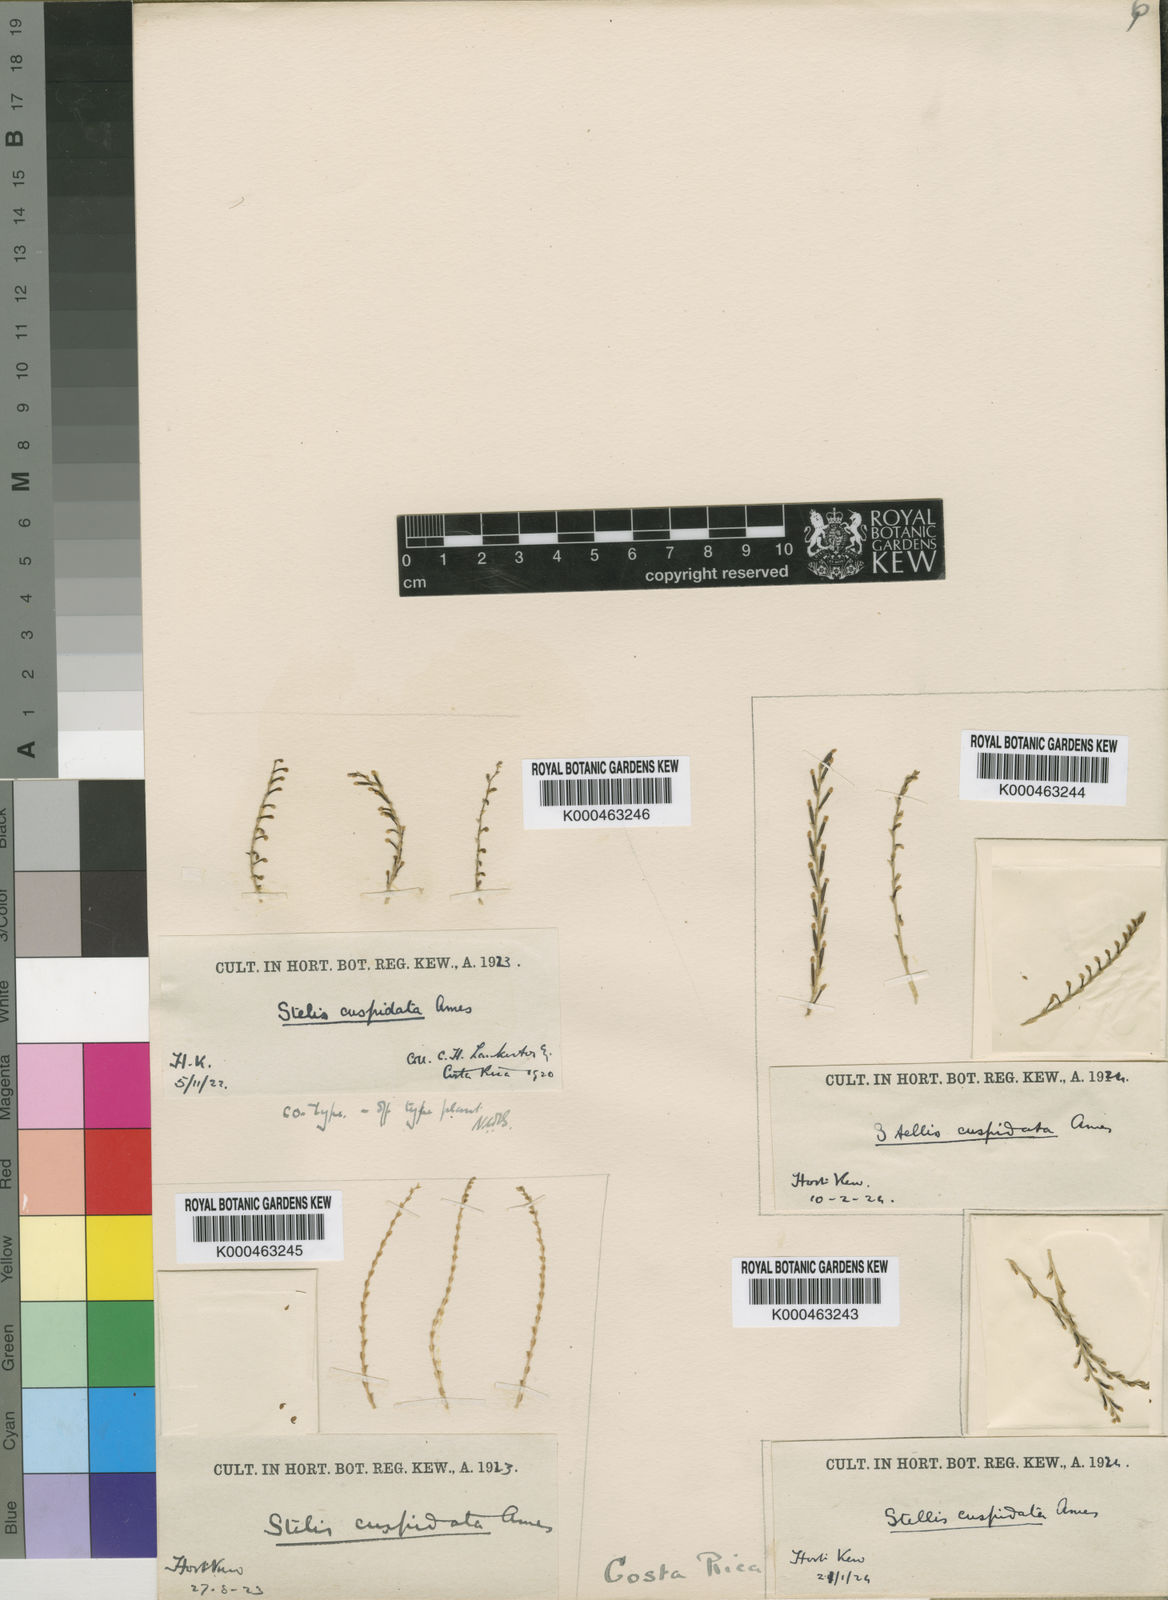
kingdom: Plantae
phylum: Tracheophyta
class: Liliopsida
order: Asparagales
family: Orchidaceae
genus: Stelis
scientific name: Stelis cuspidata
